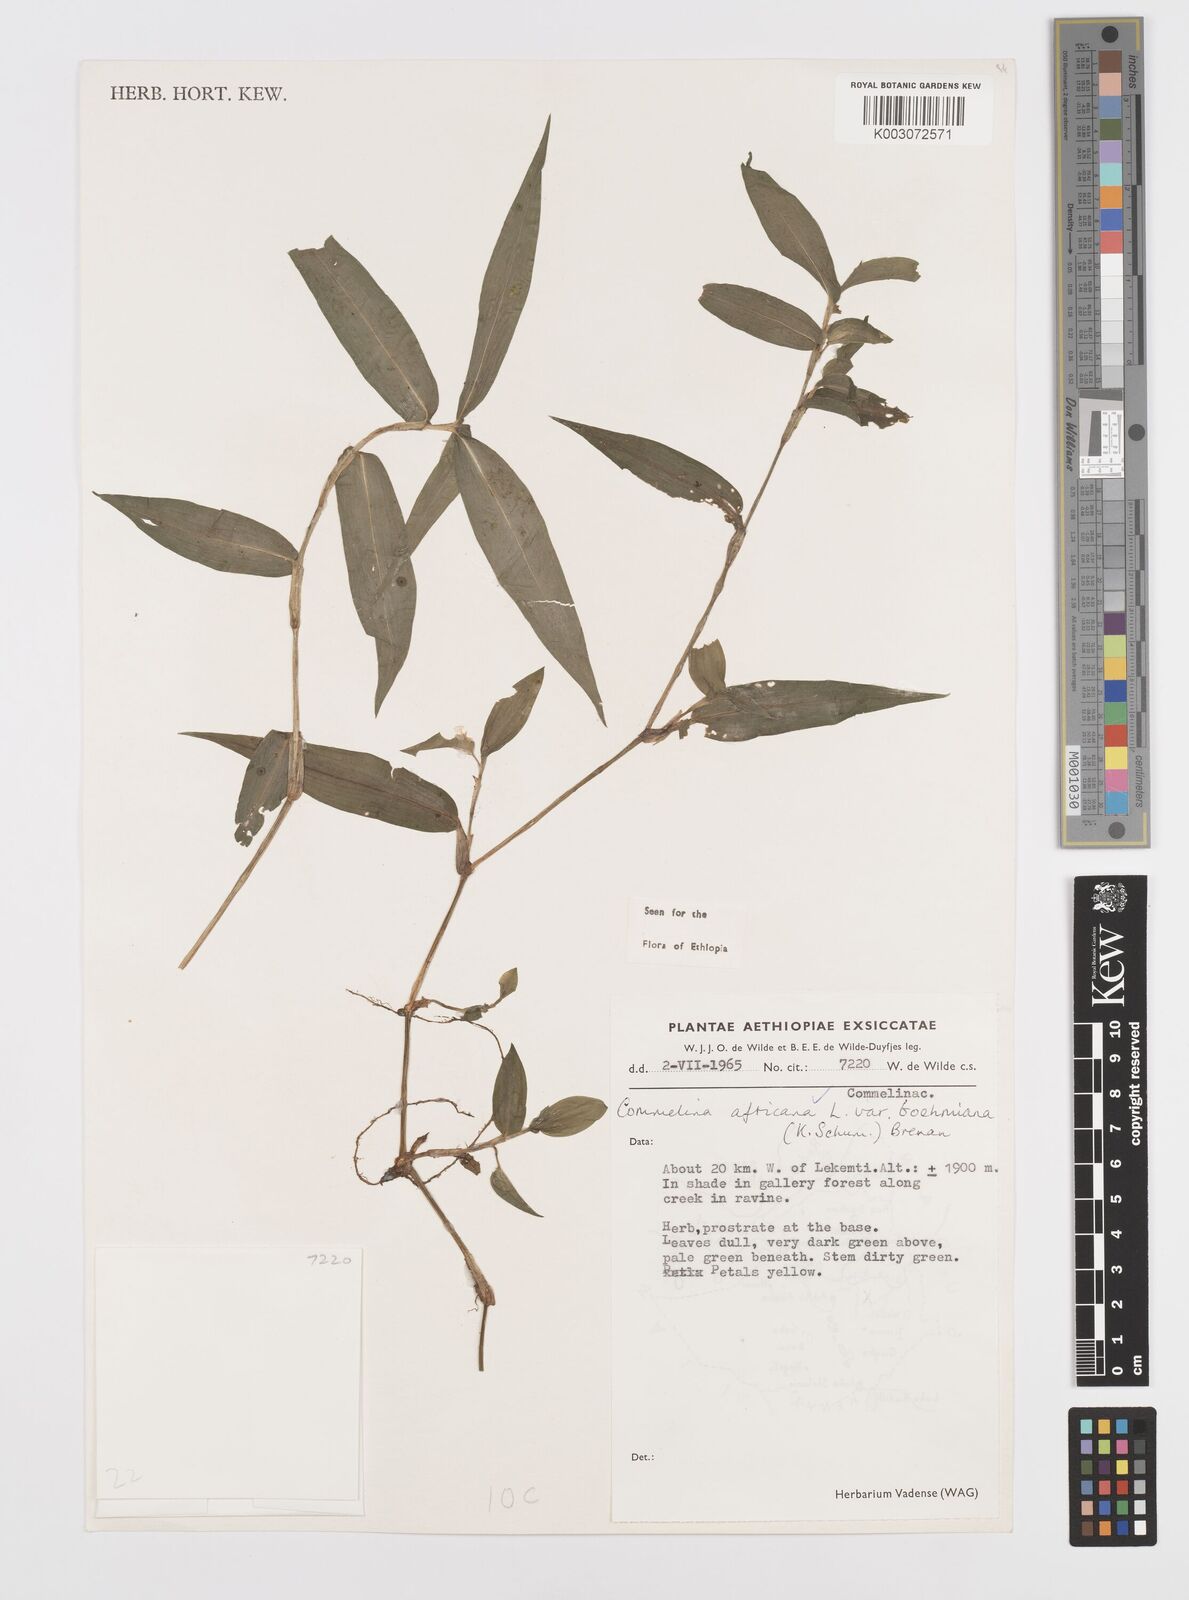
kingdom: Plantae
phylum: Tracheophyta
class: Liliopsida
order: Commelinales
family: Commelinaceae
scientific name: Commelinaceae
